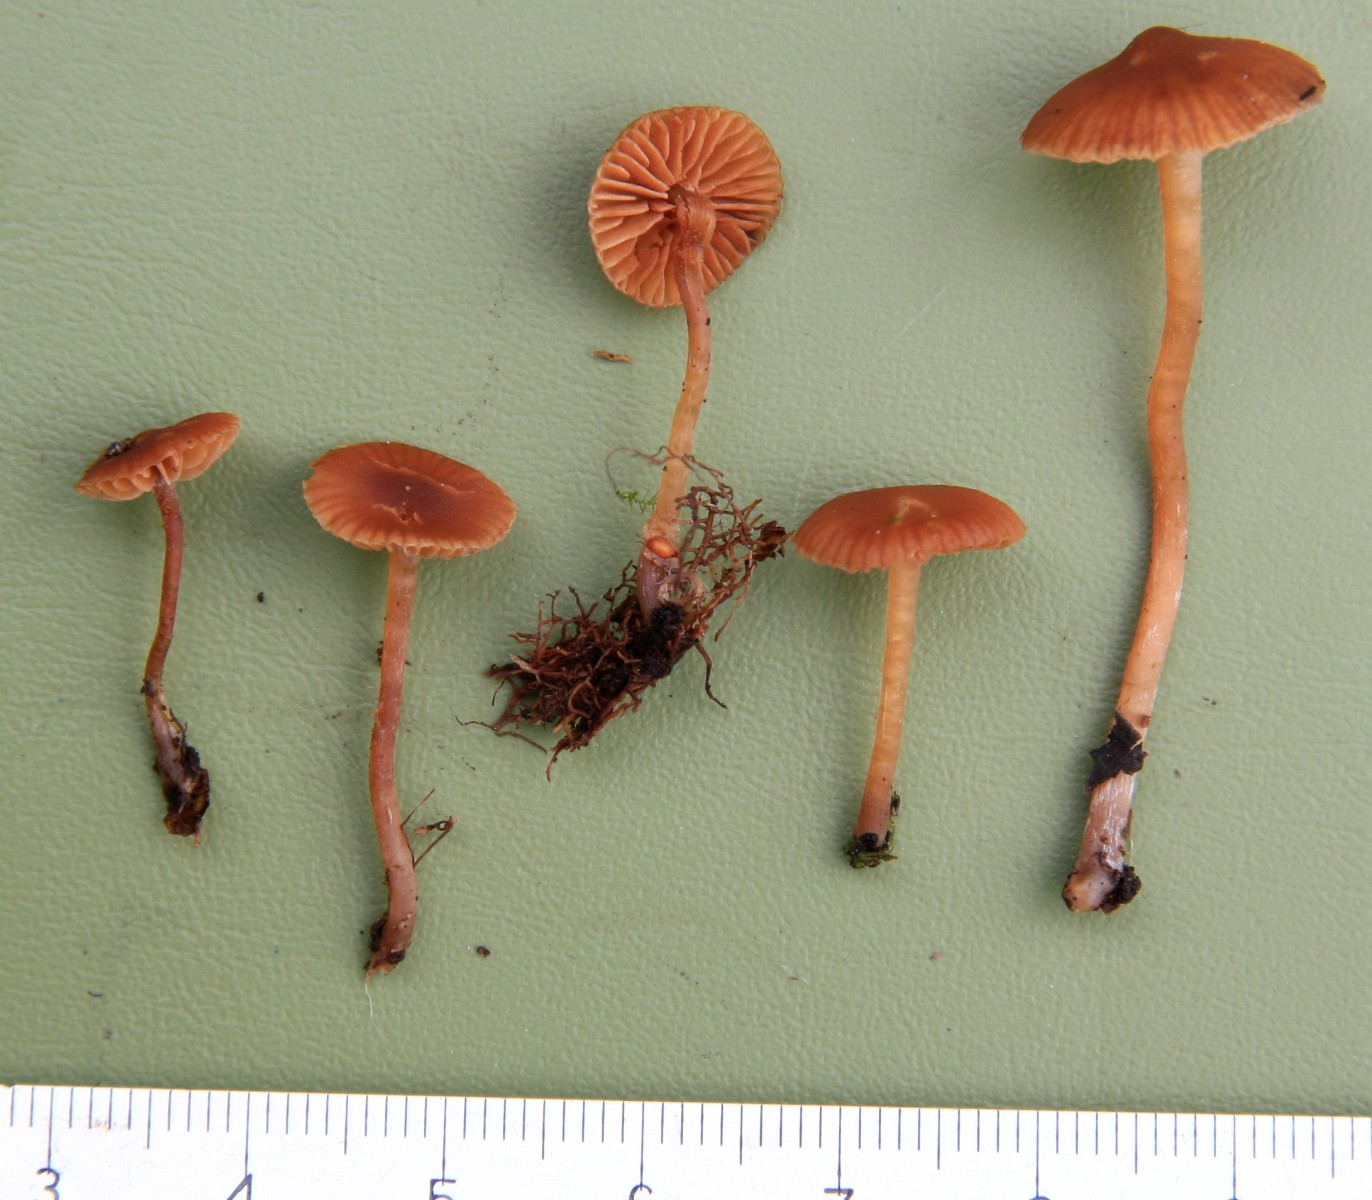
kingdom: Fungi
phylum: Basidiomycota
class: Agaricomycetes
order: Agaricales
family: Hymenogastraceae
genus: Galerina
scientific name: Galerina lacustris
